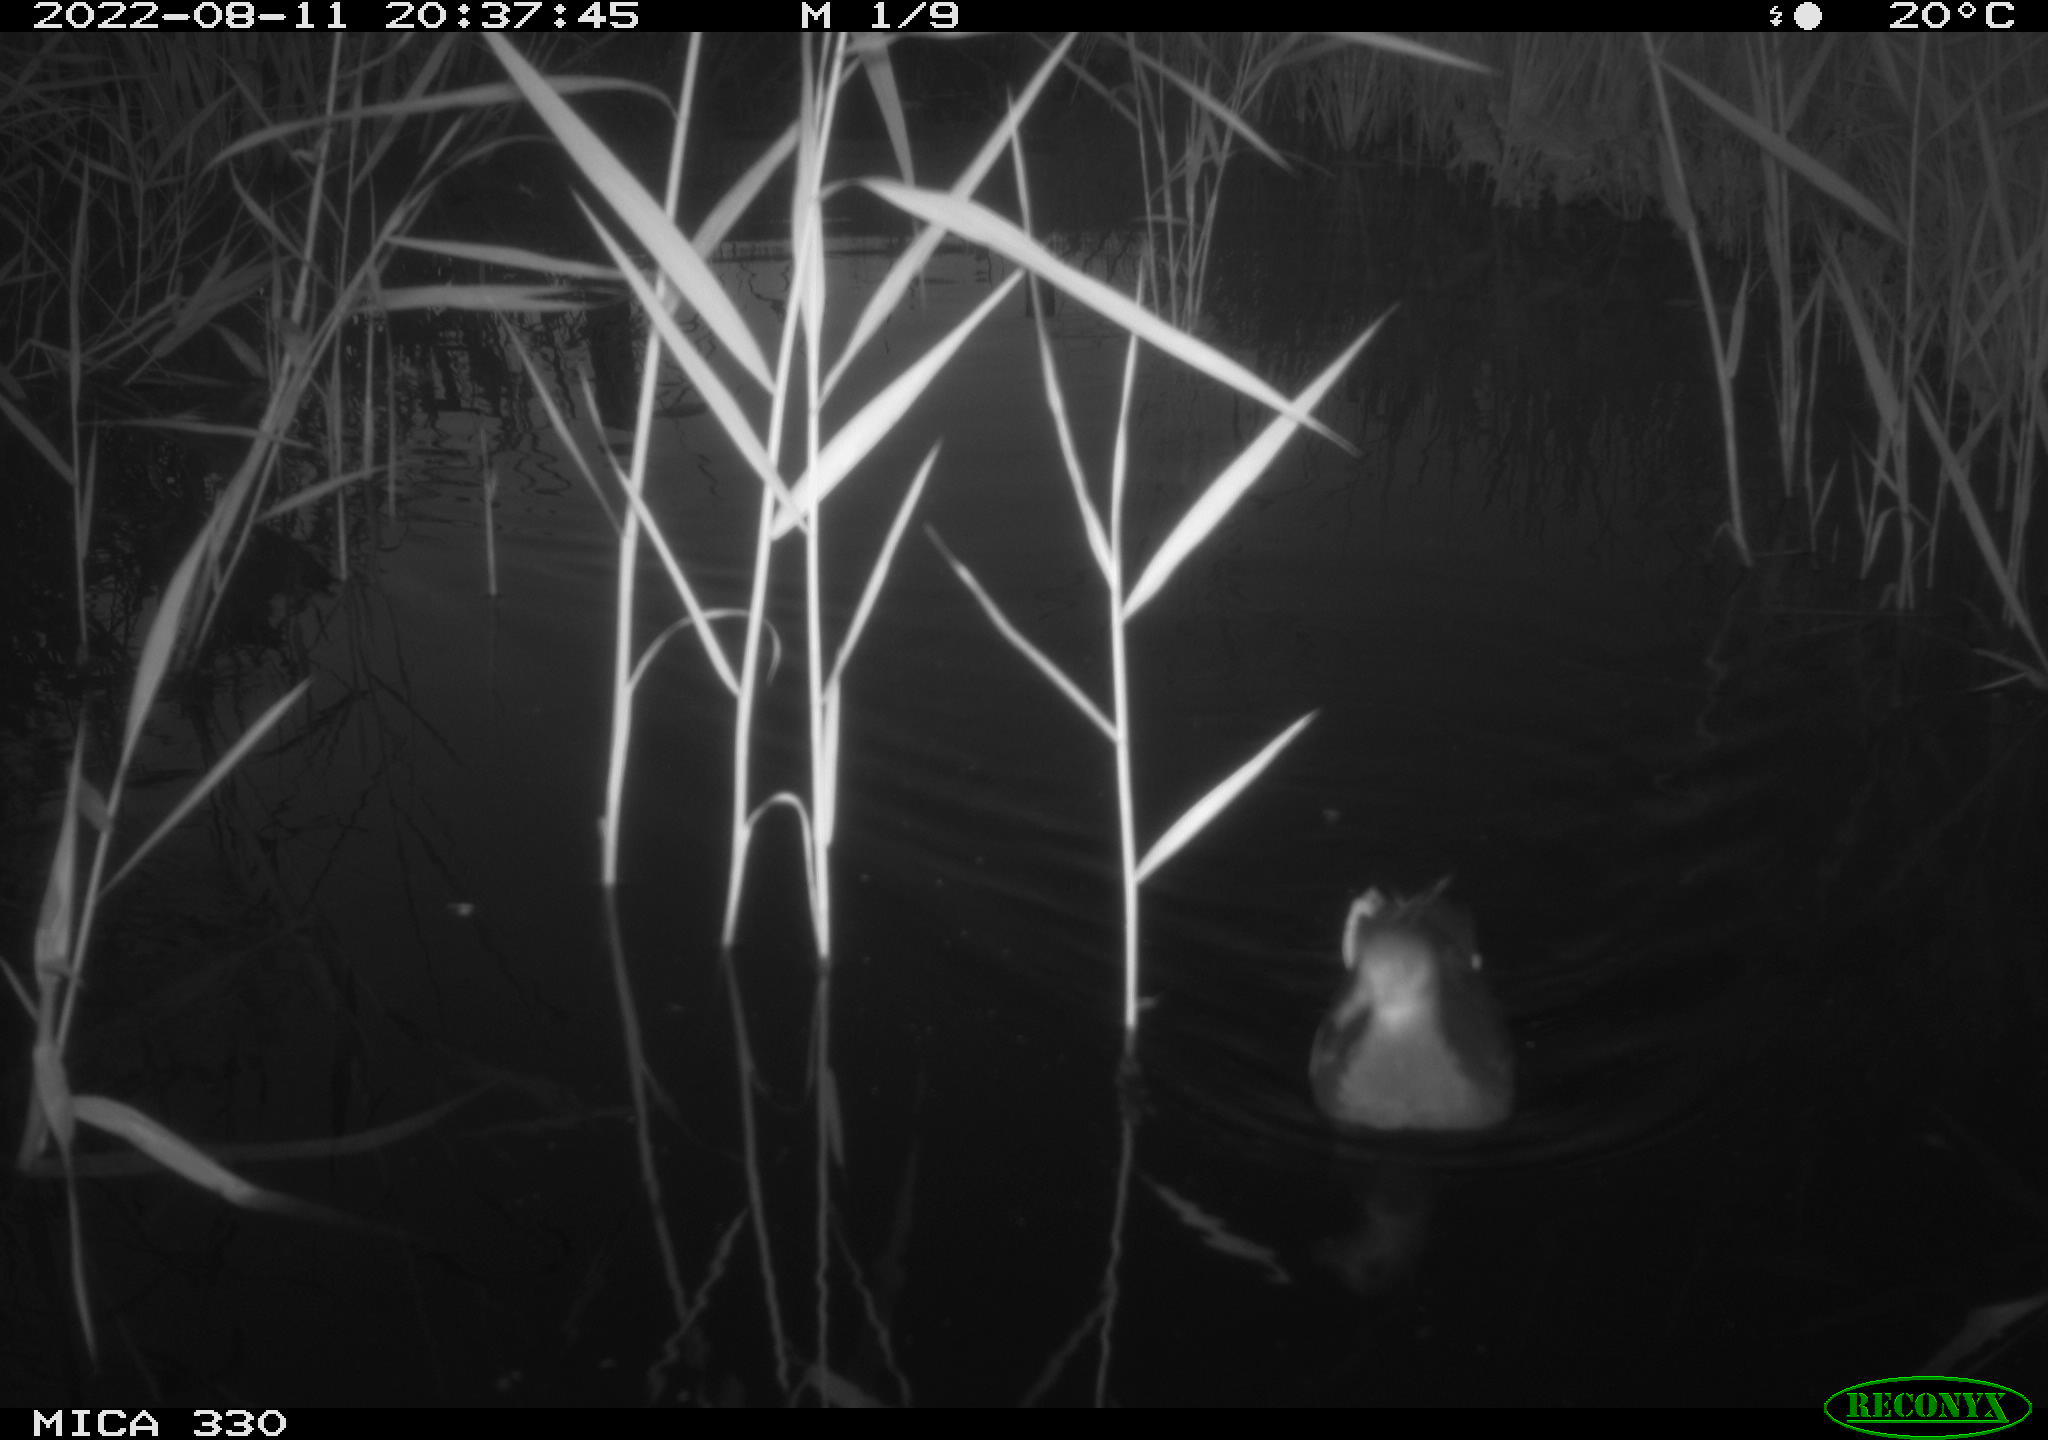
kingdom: Animalia
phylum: Chordata
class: Aves
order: Gruiformes
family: Rallidae
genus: Gallinula
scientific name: Gallinula chloropus
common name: Common moorhen
